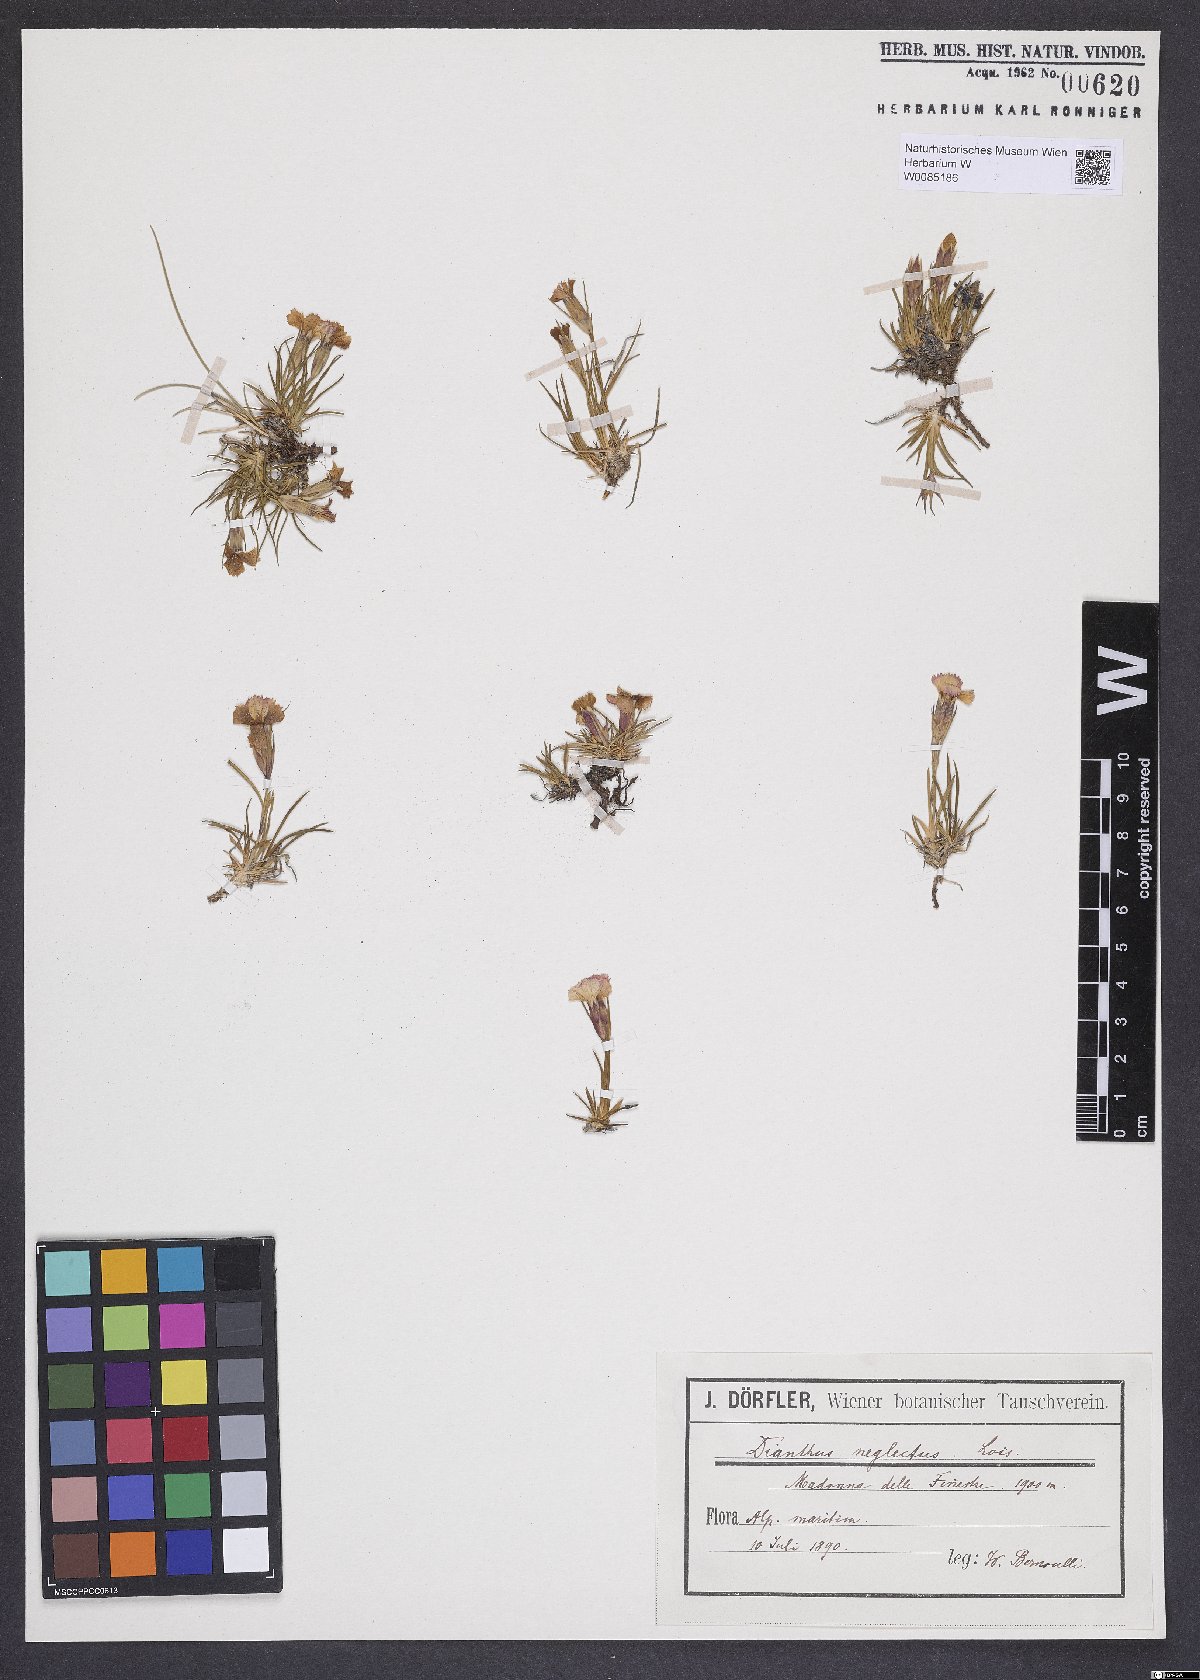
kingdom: Plantae
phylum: Tracheophyta
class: Magnoliopsida
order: Caryophyllales
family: Caryophyllaceae
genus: Dianthus
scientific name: Dianthus pavonius
